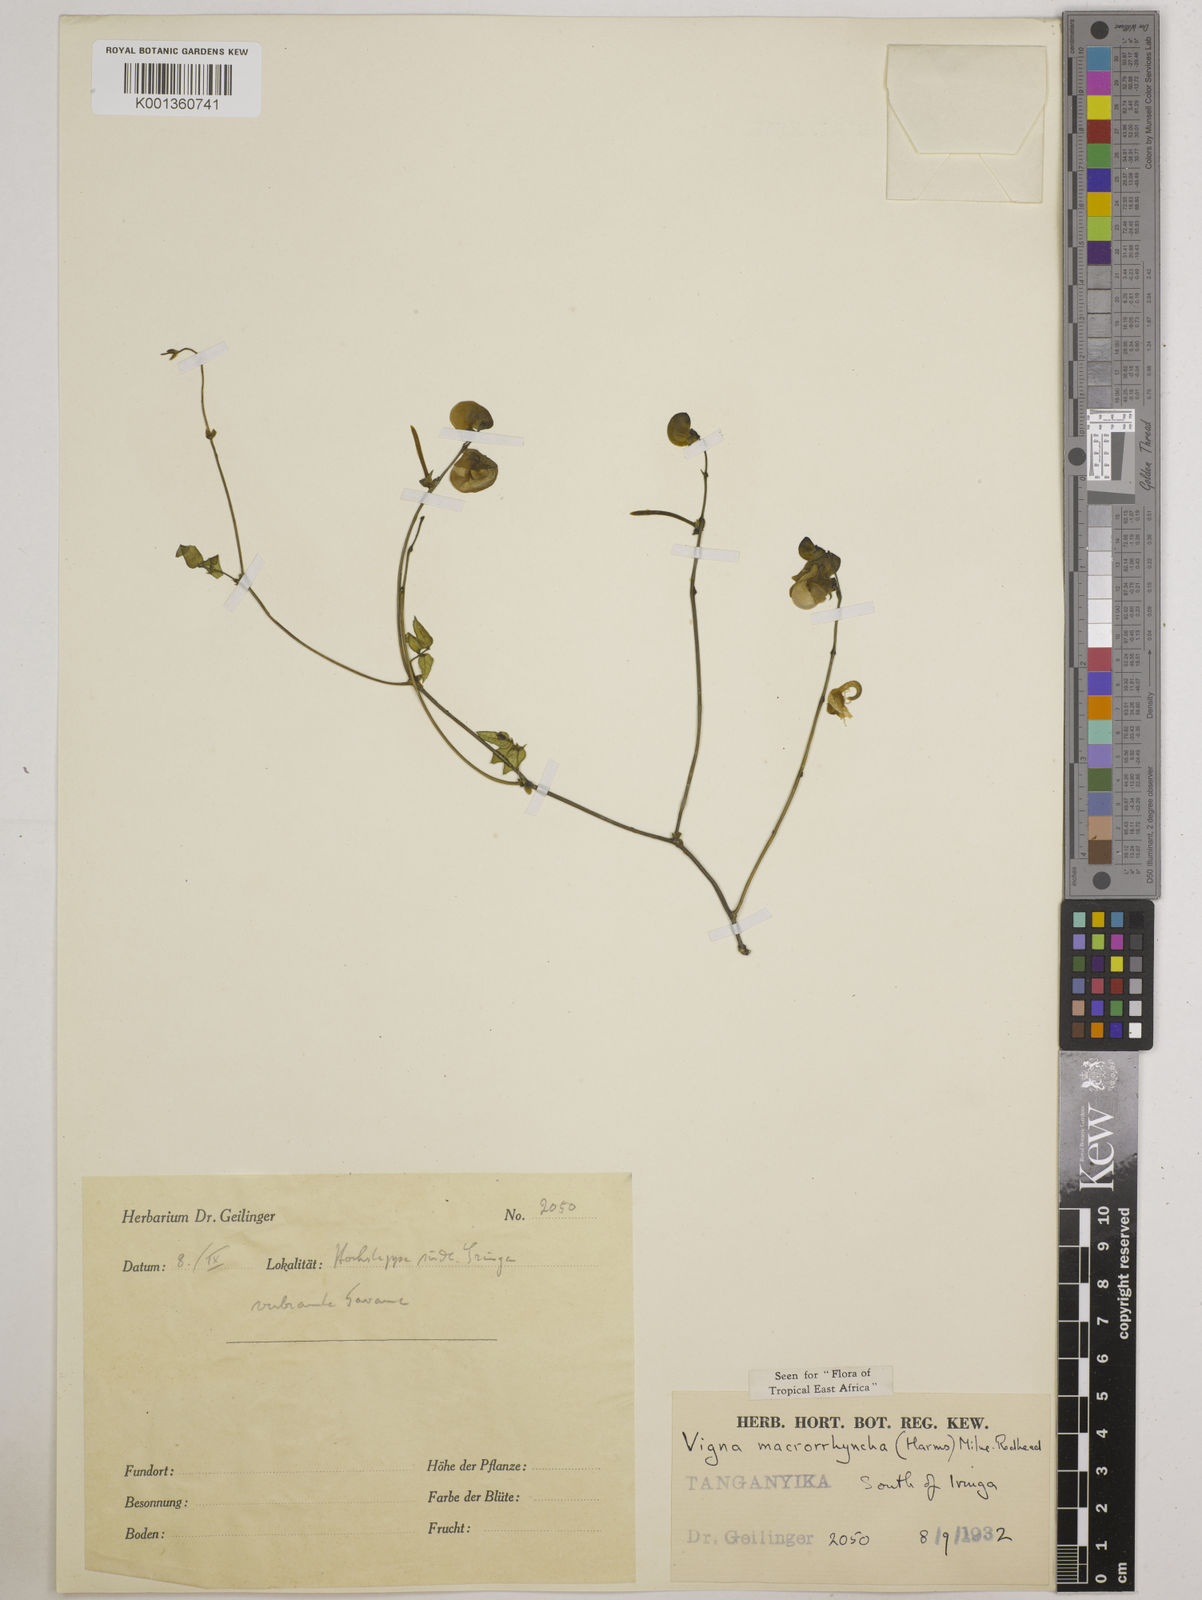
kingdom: Plantae
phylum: Tracheophyta
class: Magnoliopsida
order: Fabales
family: Fabaceae
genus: Wajira
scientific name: Wajira grahamiana
